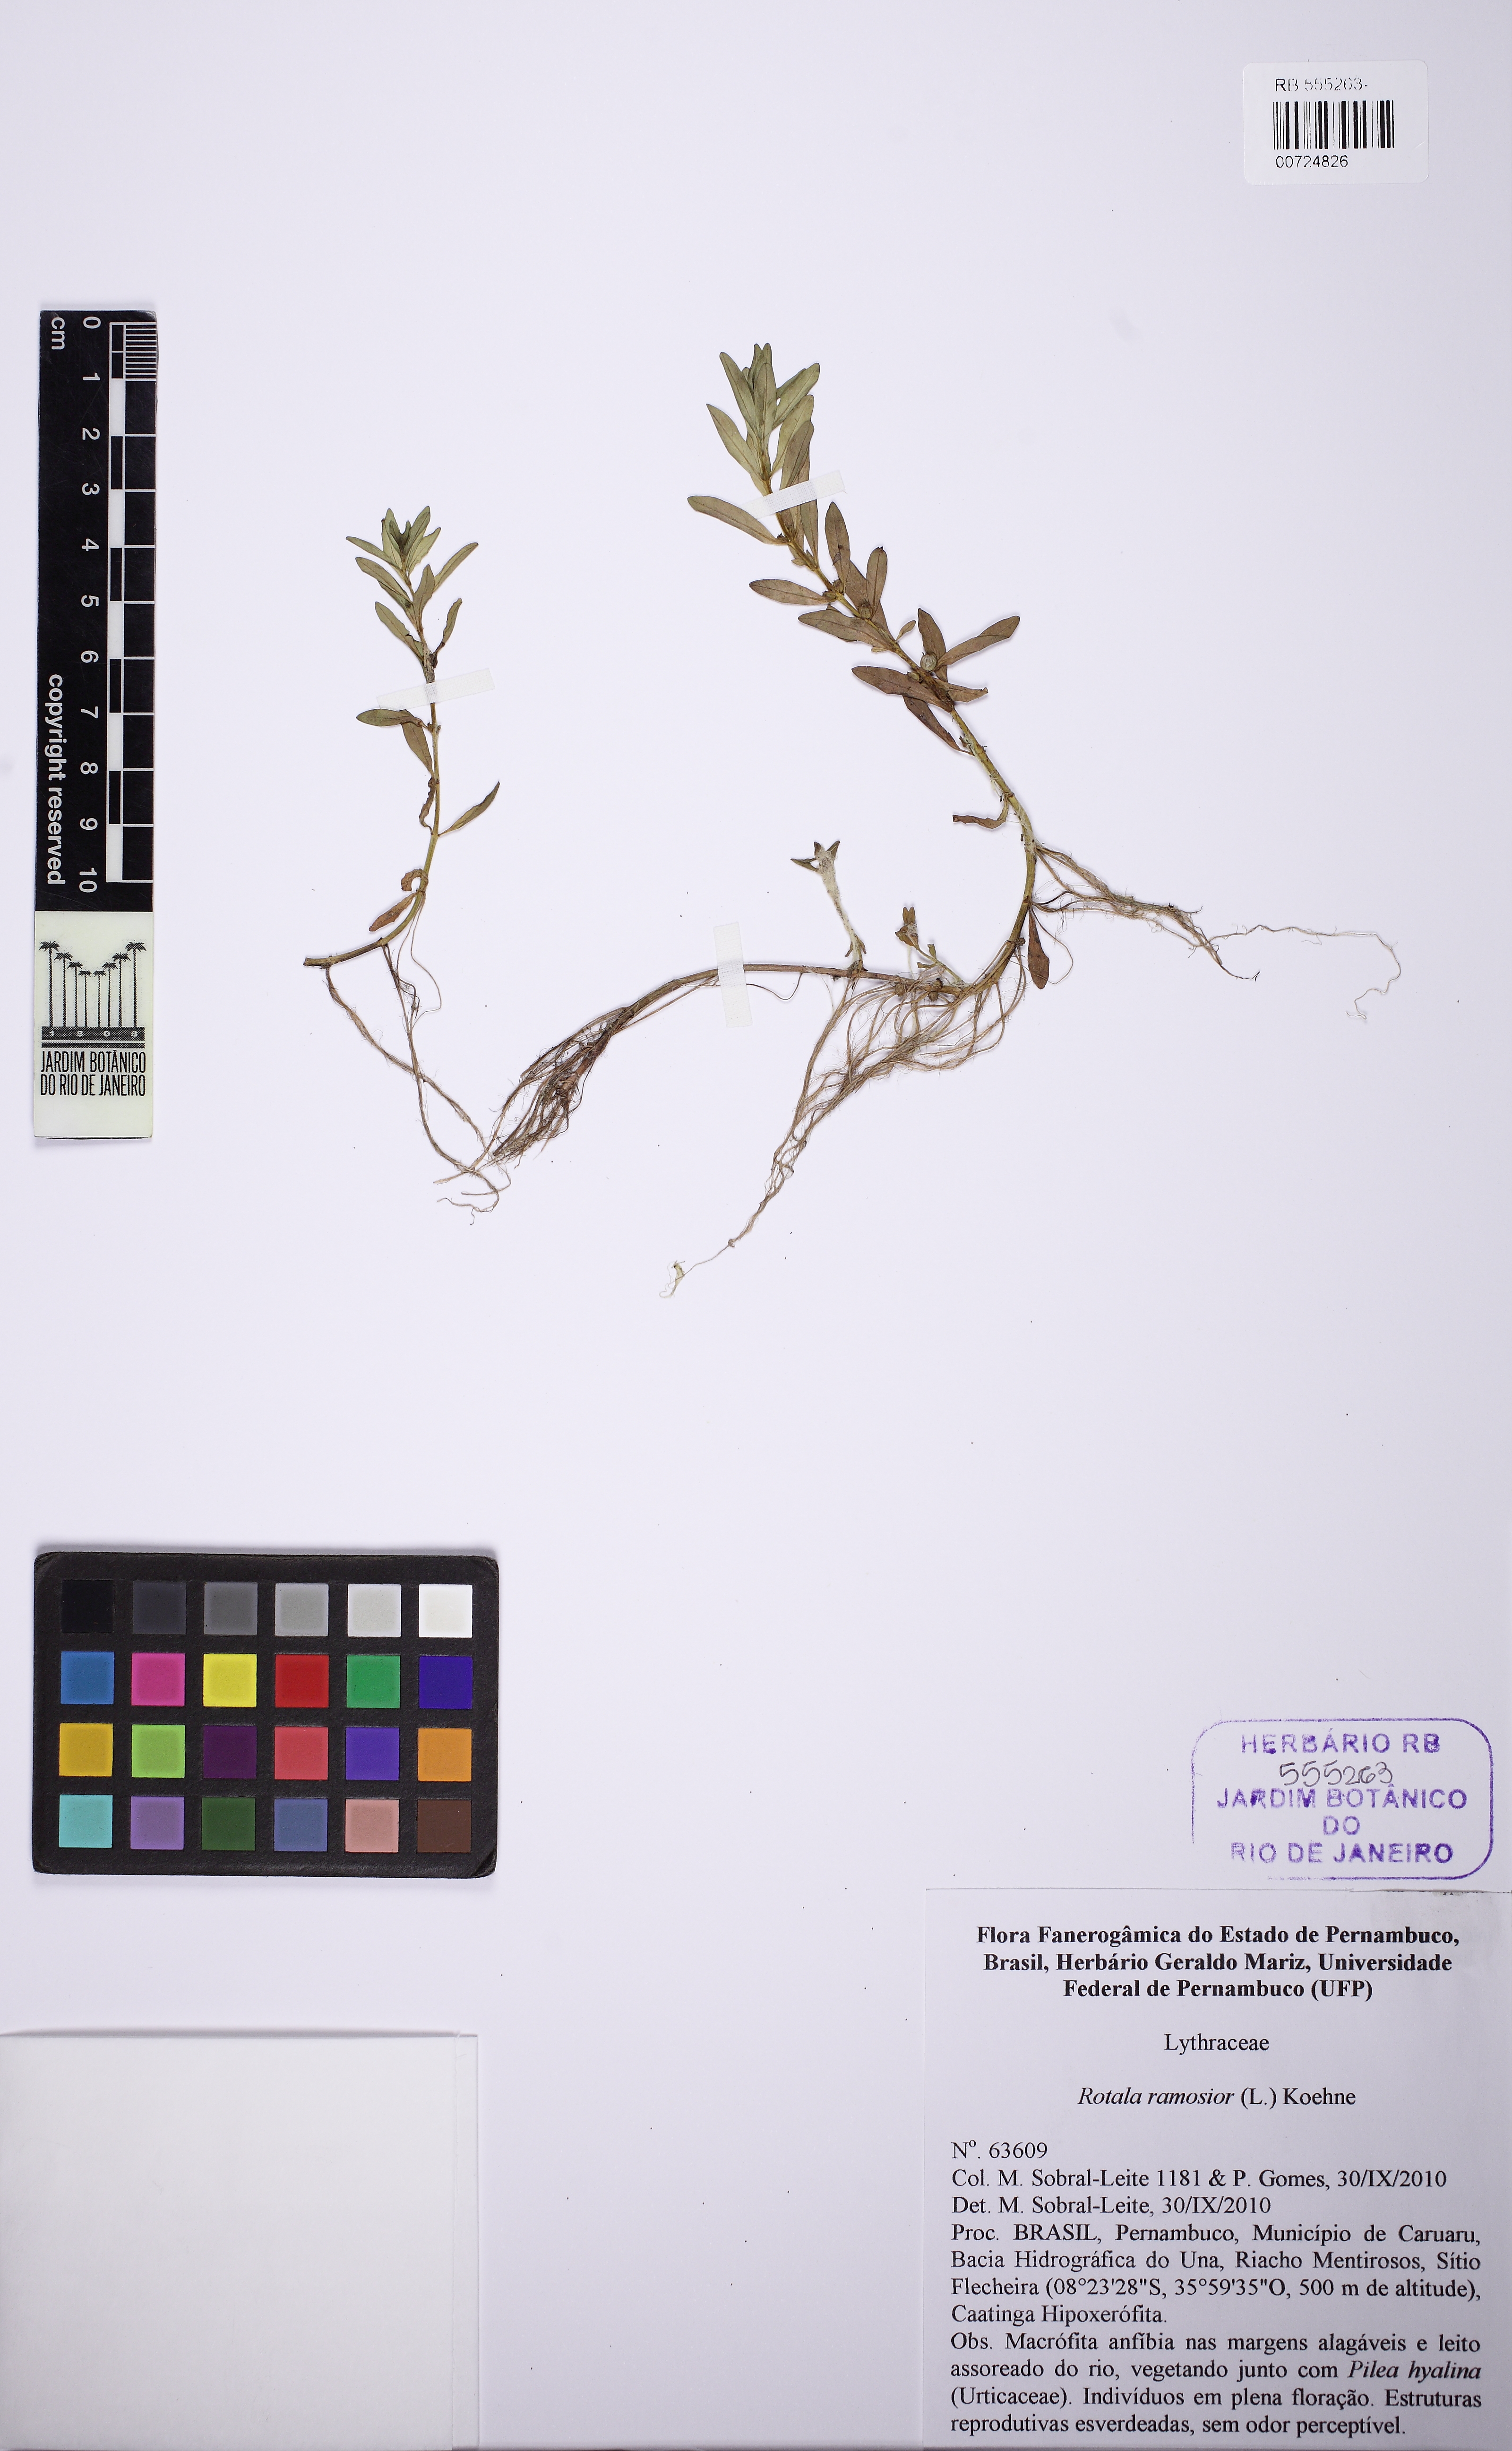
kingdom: Plantae
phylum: Tracheophyta
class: Magnoliopsida
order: Myrtales
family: Lythraceae
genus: Rotala
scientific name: Rotala ramosior
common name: Lowland rotala
